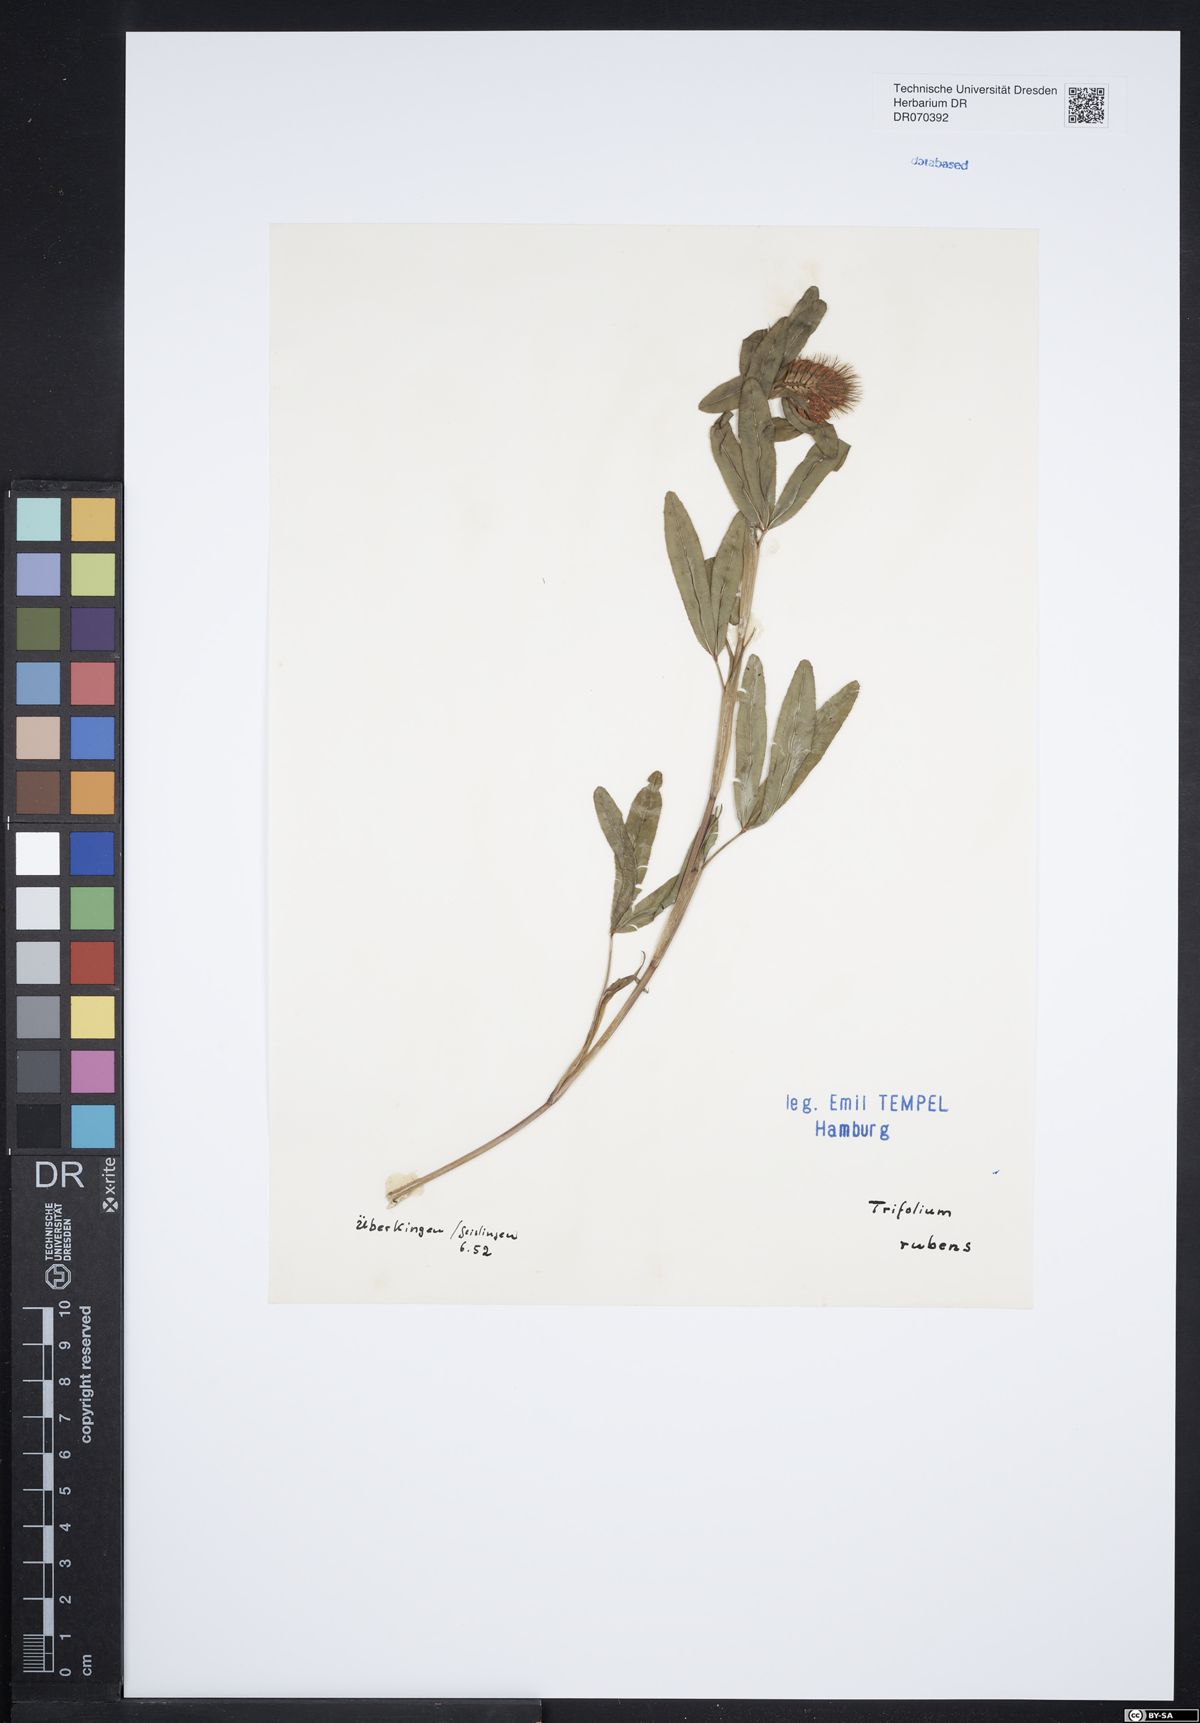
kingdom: Plantae
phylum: Tracheophyta
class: Magnoliopsida
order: Fabales
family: Fabaceae
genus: Trifolium
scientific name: Trifolium rubens
